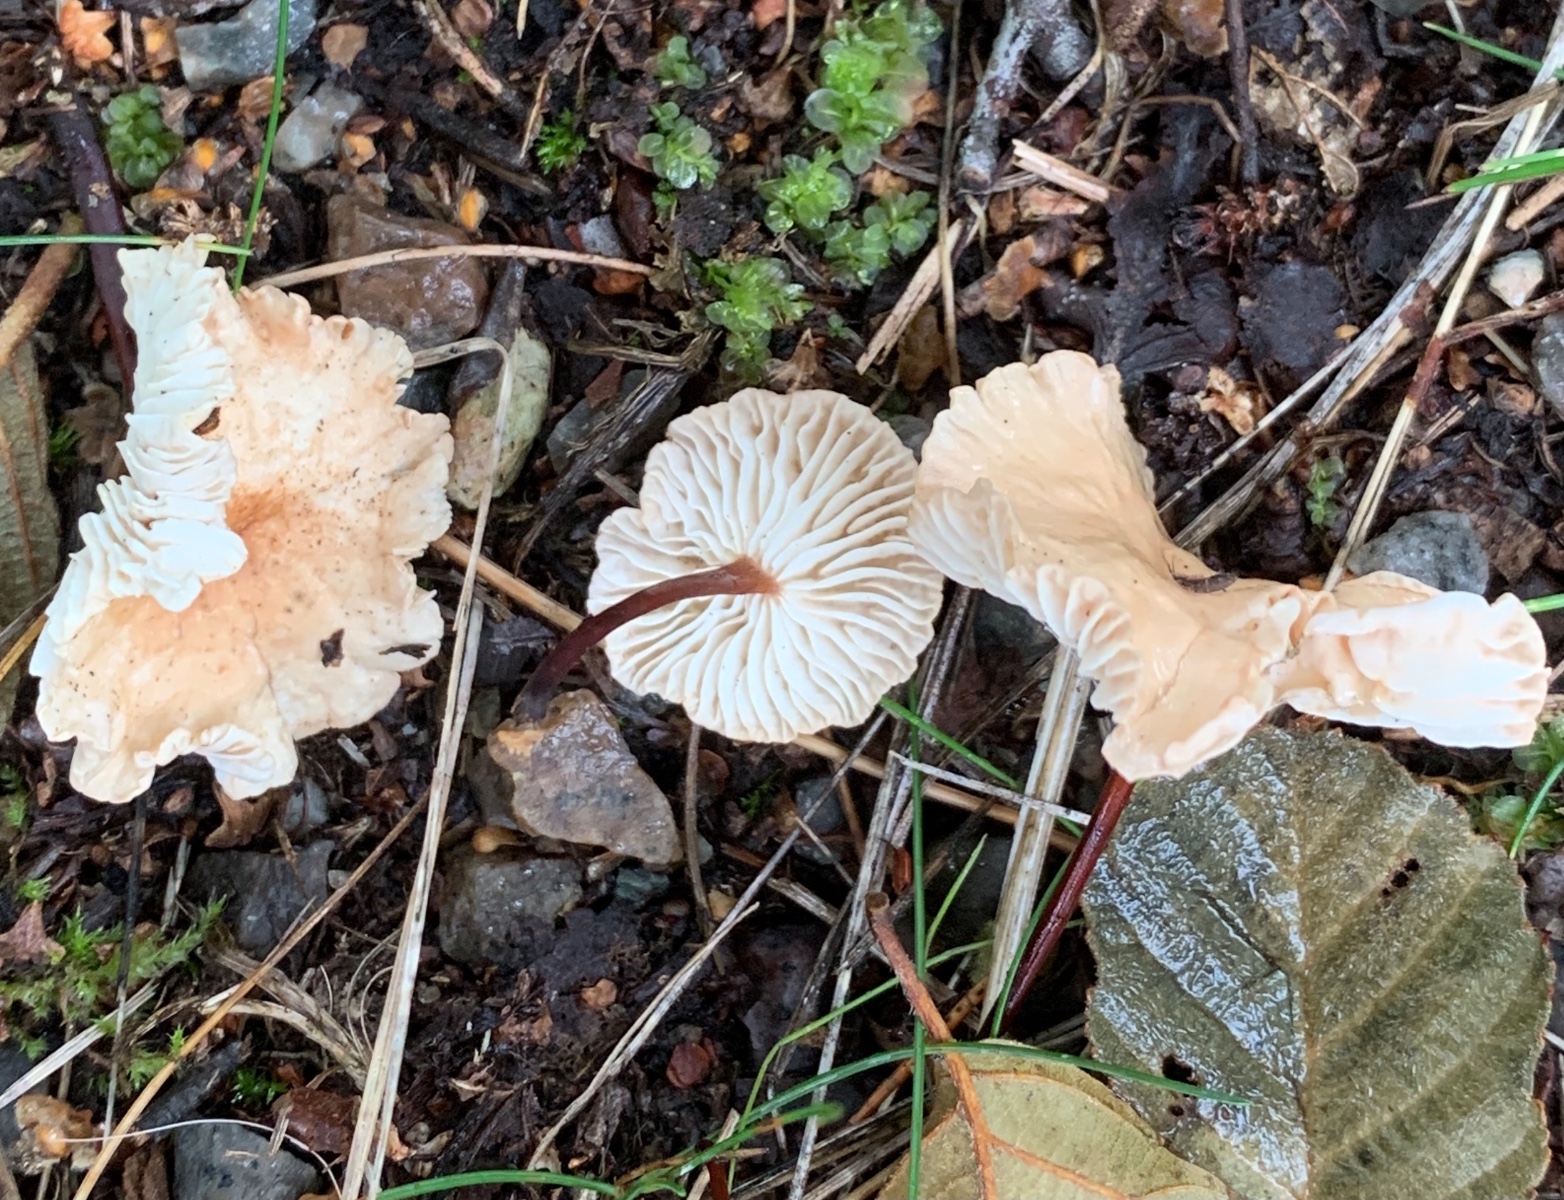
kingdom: Fungi
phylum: Basidiomycota
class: Agaricomycetes
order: Agaricales
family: Omphalotaceae
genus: Mycetinis
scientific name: Mycetinis scorodonius
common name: lille løghat
